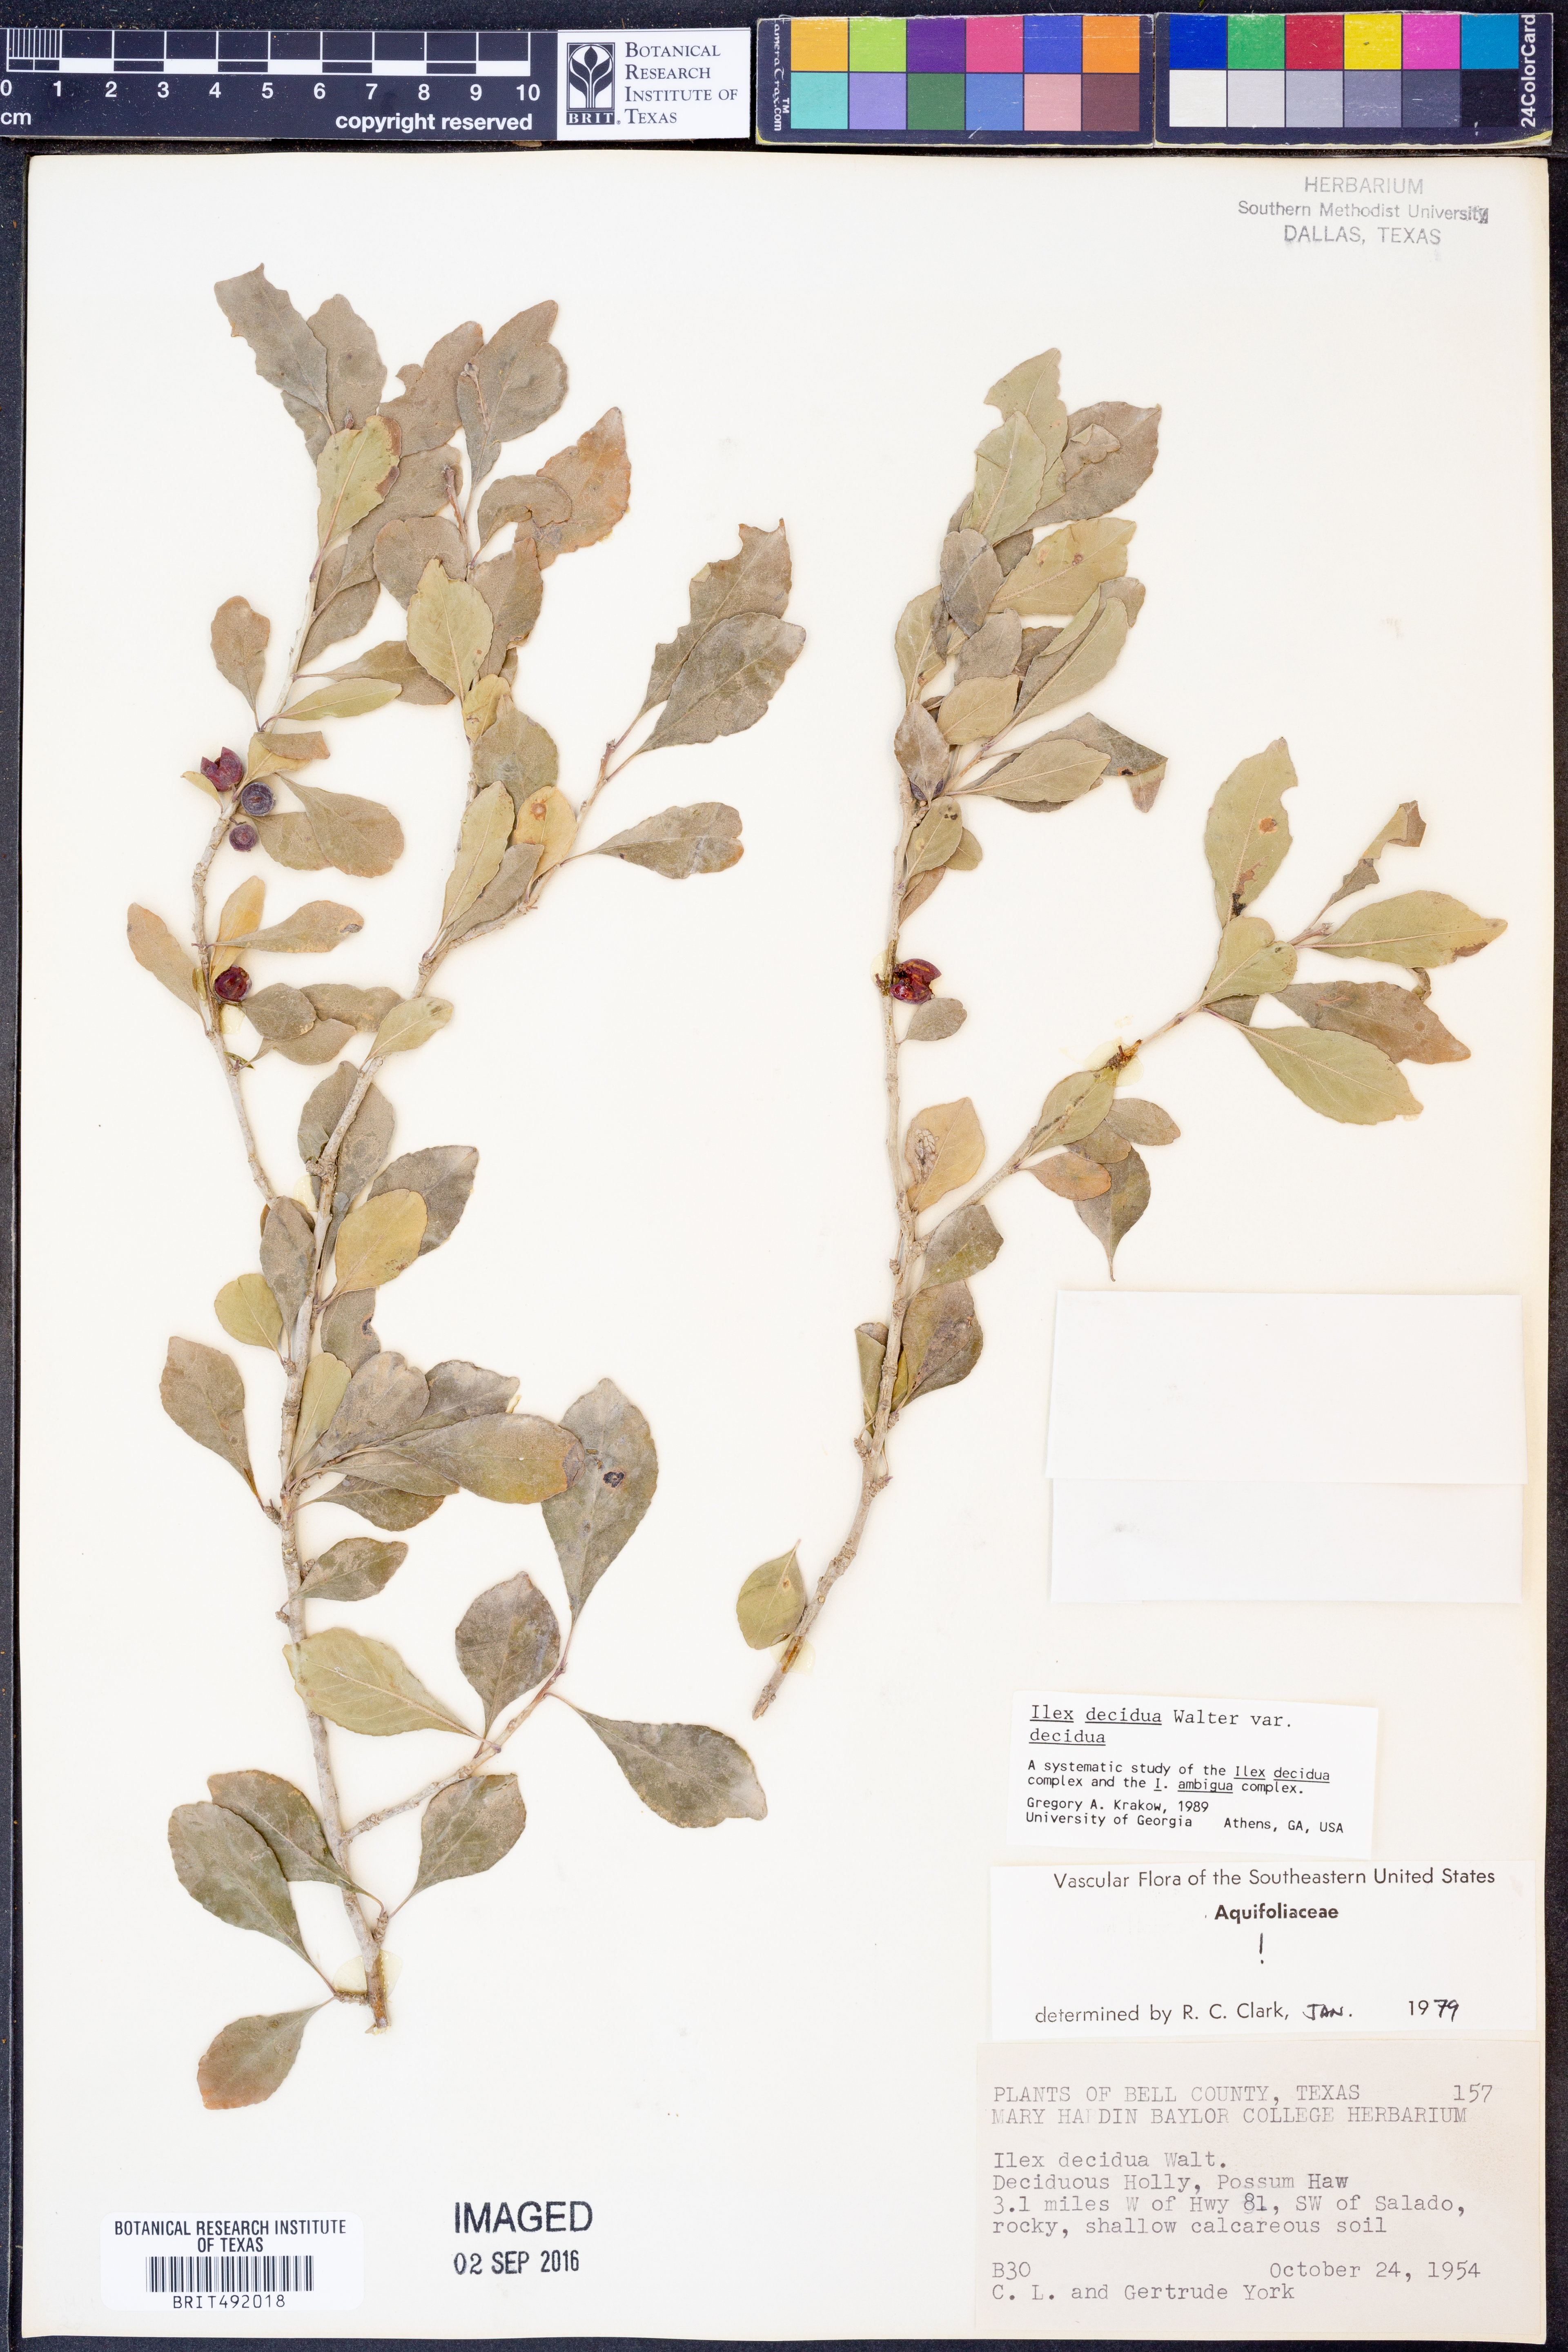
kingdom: Plantae
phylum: Tracheophyta
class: Magnoliopsida
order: Aquifoliales
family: Aquifoliaceae
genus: Ilex
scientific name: Ilex decidua
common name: Possum-haw
